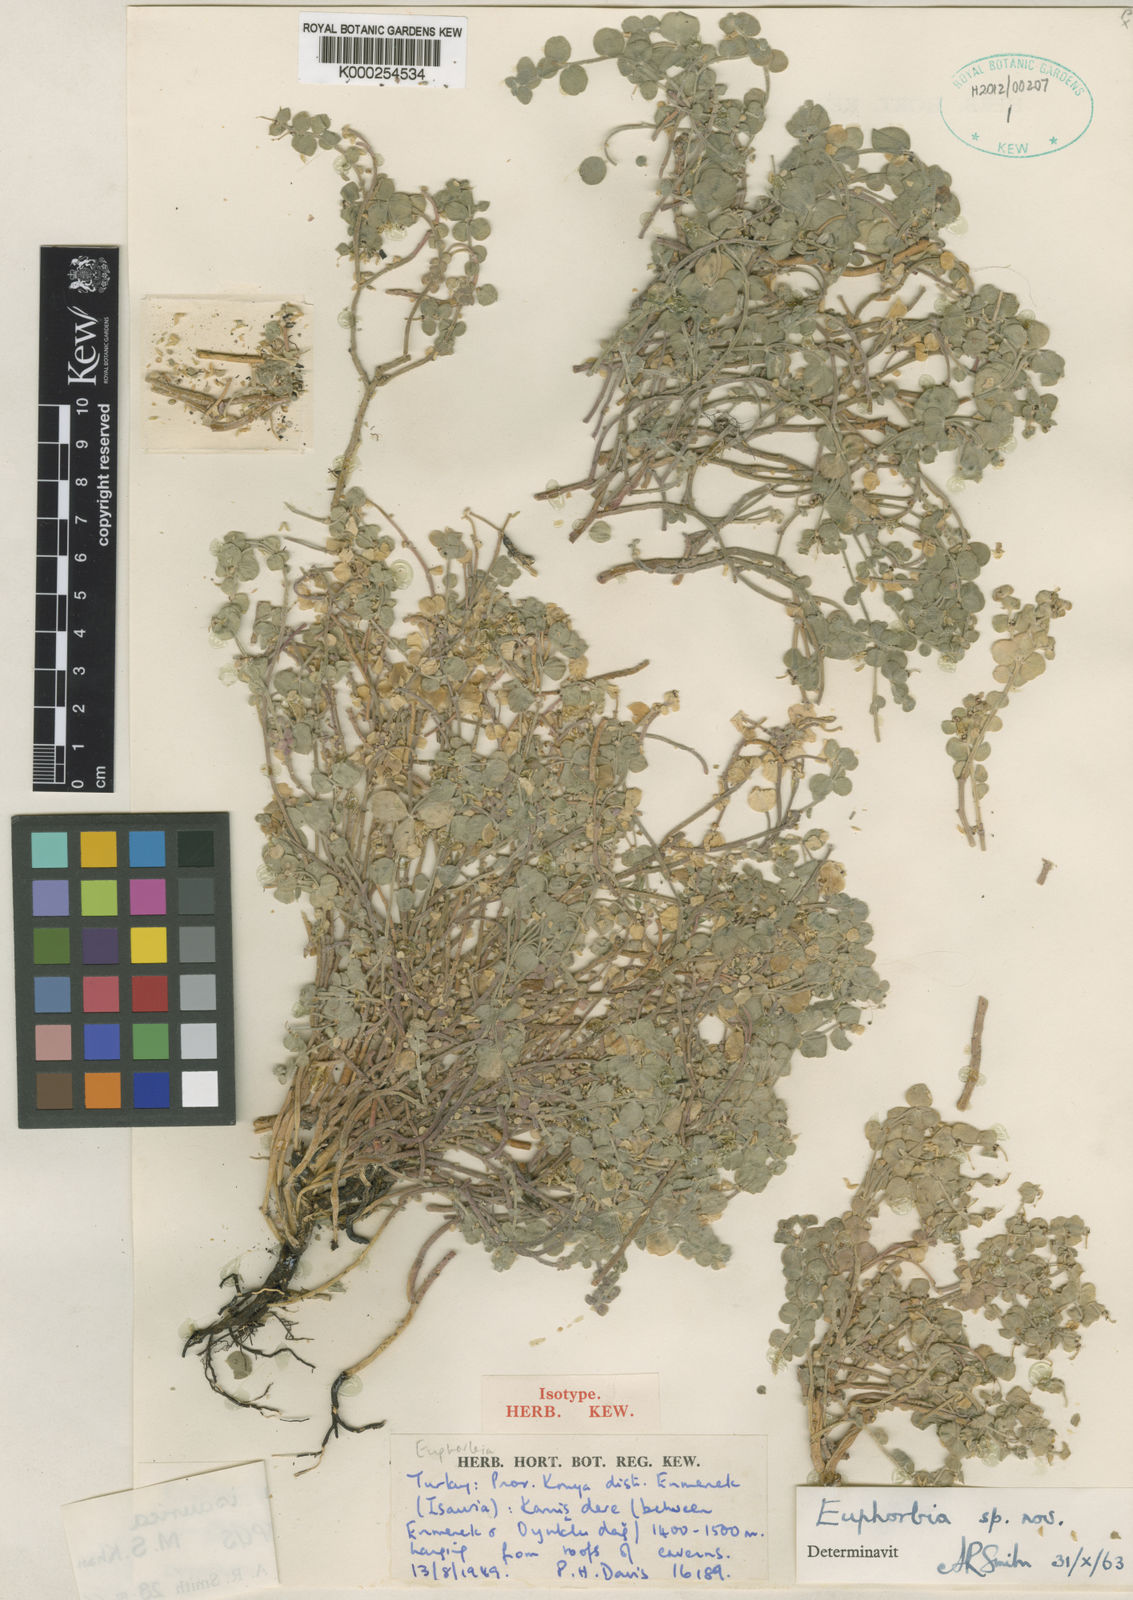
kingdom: Plantae
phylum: Tracheophyta
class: Magnoliopsida
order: Malpighiales
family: Euphorbiaceae
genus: Euphorbia
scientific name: Euphorbia isaurica
